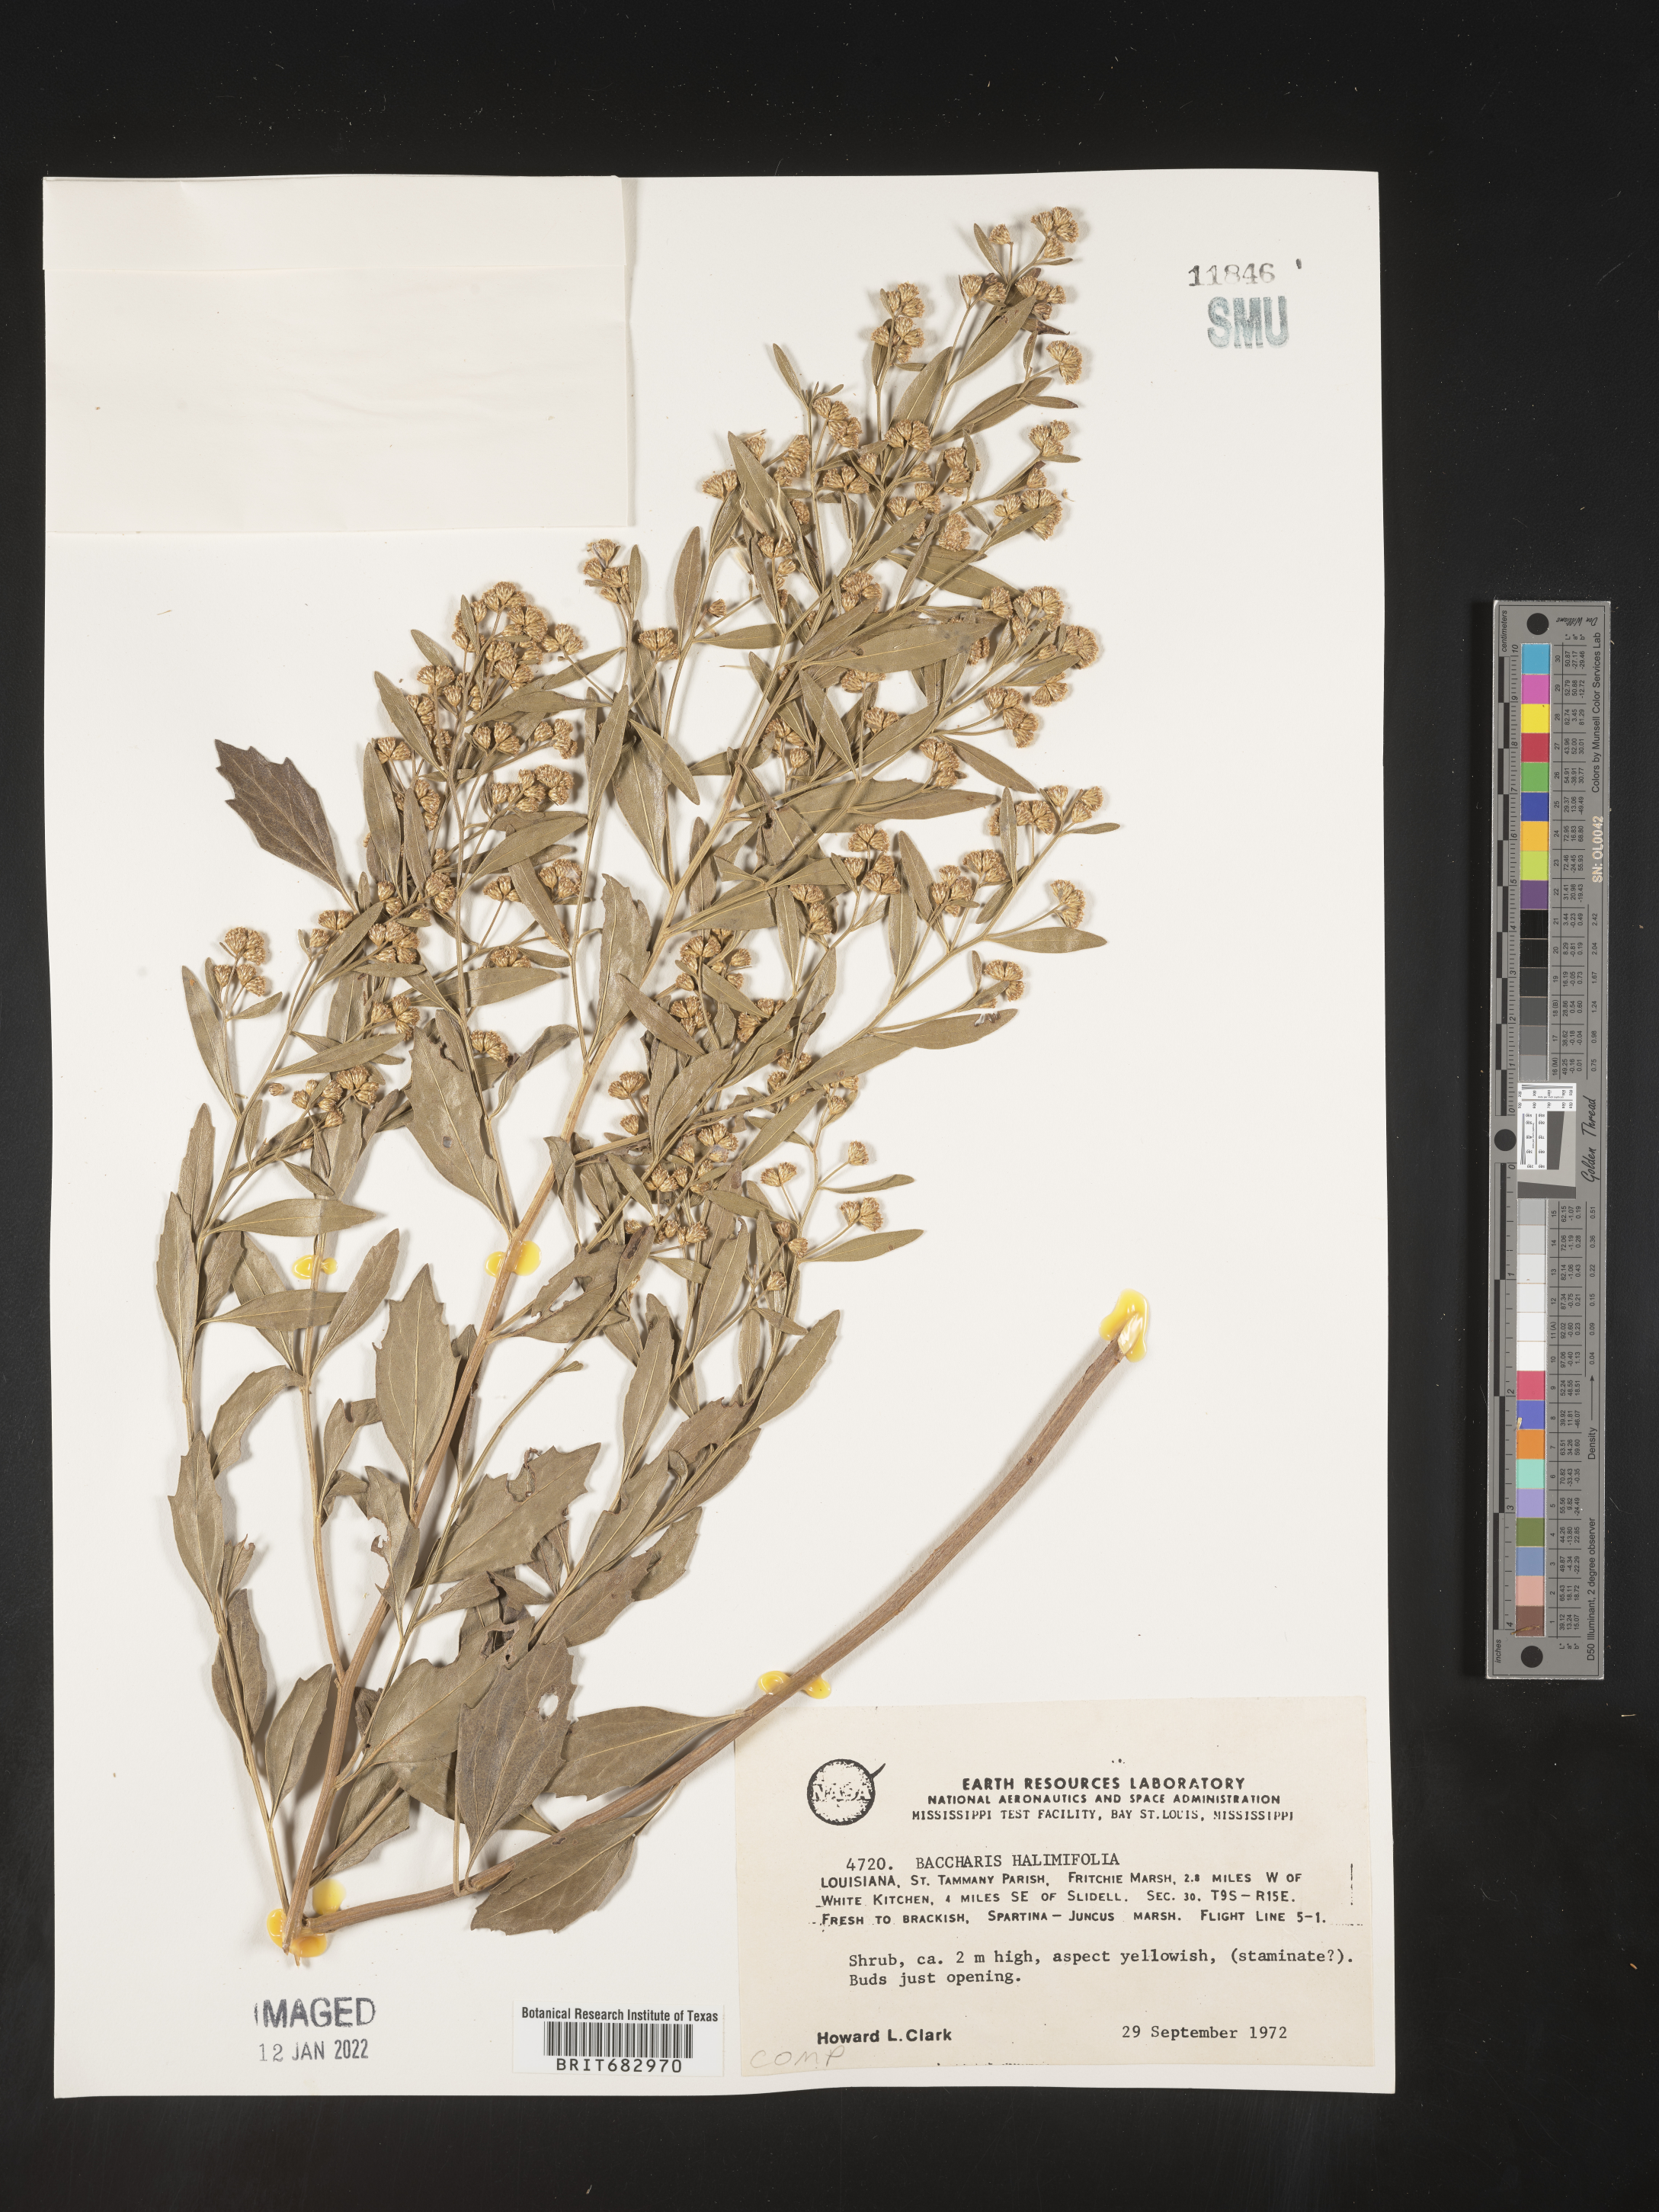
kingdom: Plantae
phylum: Tracheophyta
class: Magnoliopsida
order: Asterales
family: Asteraceae
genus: Nidorella
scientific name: Nidorella ivifolia
